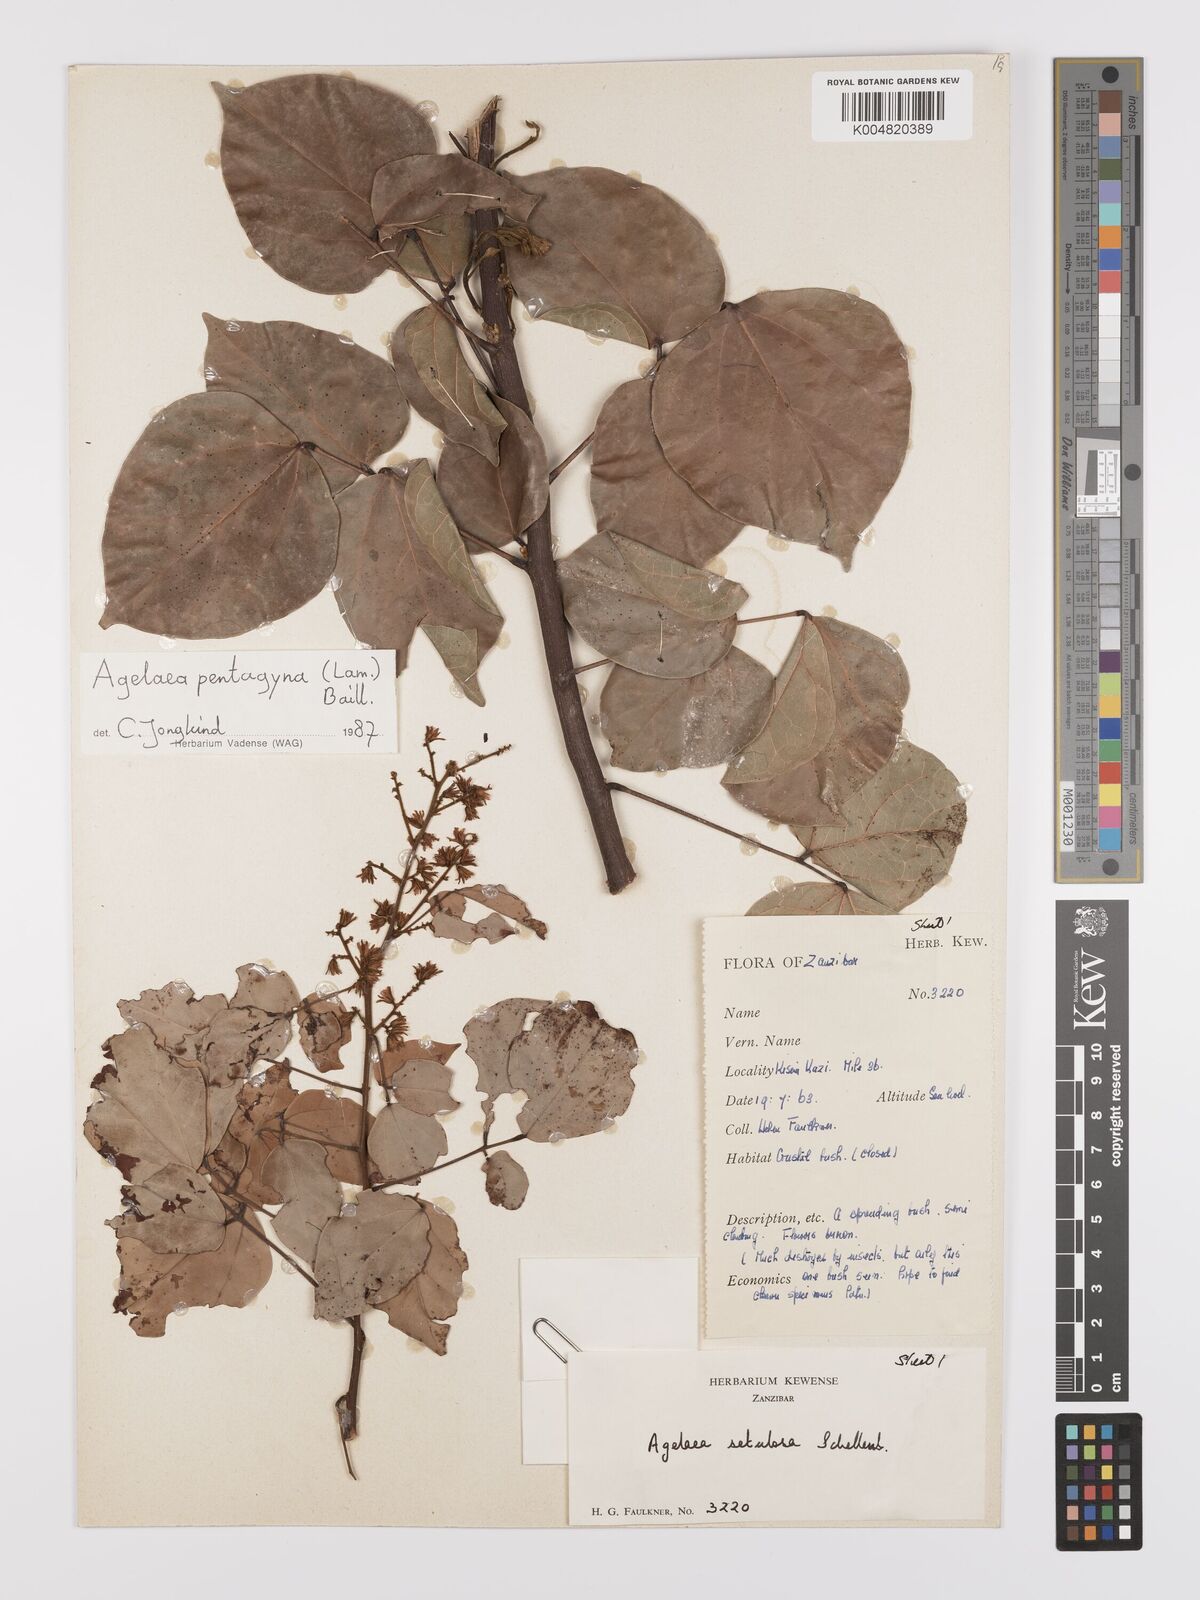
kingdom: Plantae
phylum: Tracheophyta
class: Magnoliopsida
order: Oxalidales
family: Connaraceae
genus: Agelaea
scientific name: Agelaea pentagyna
